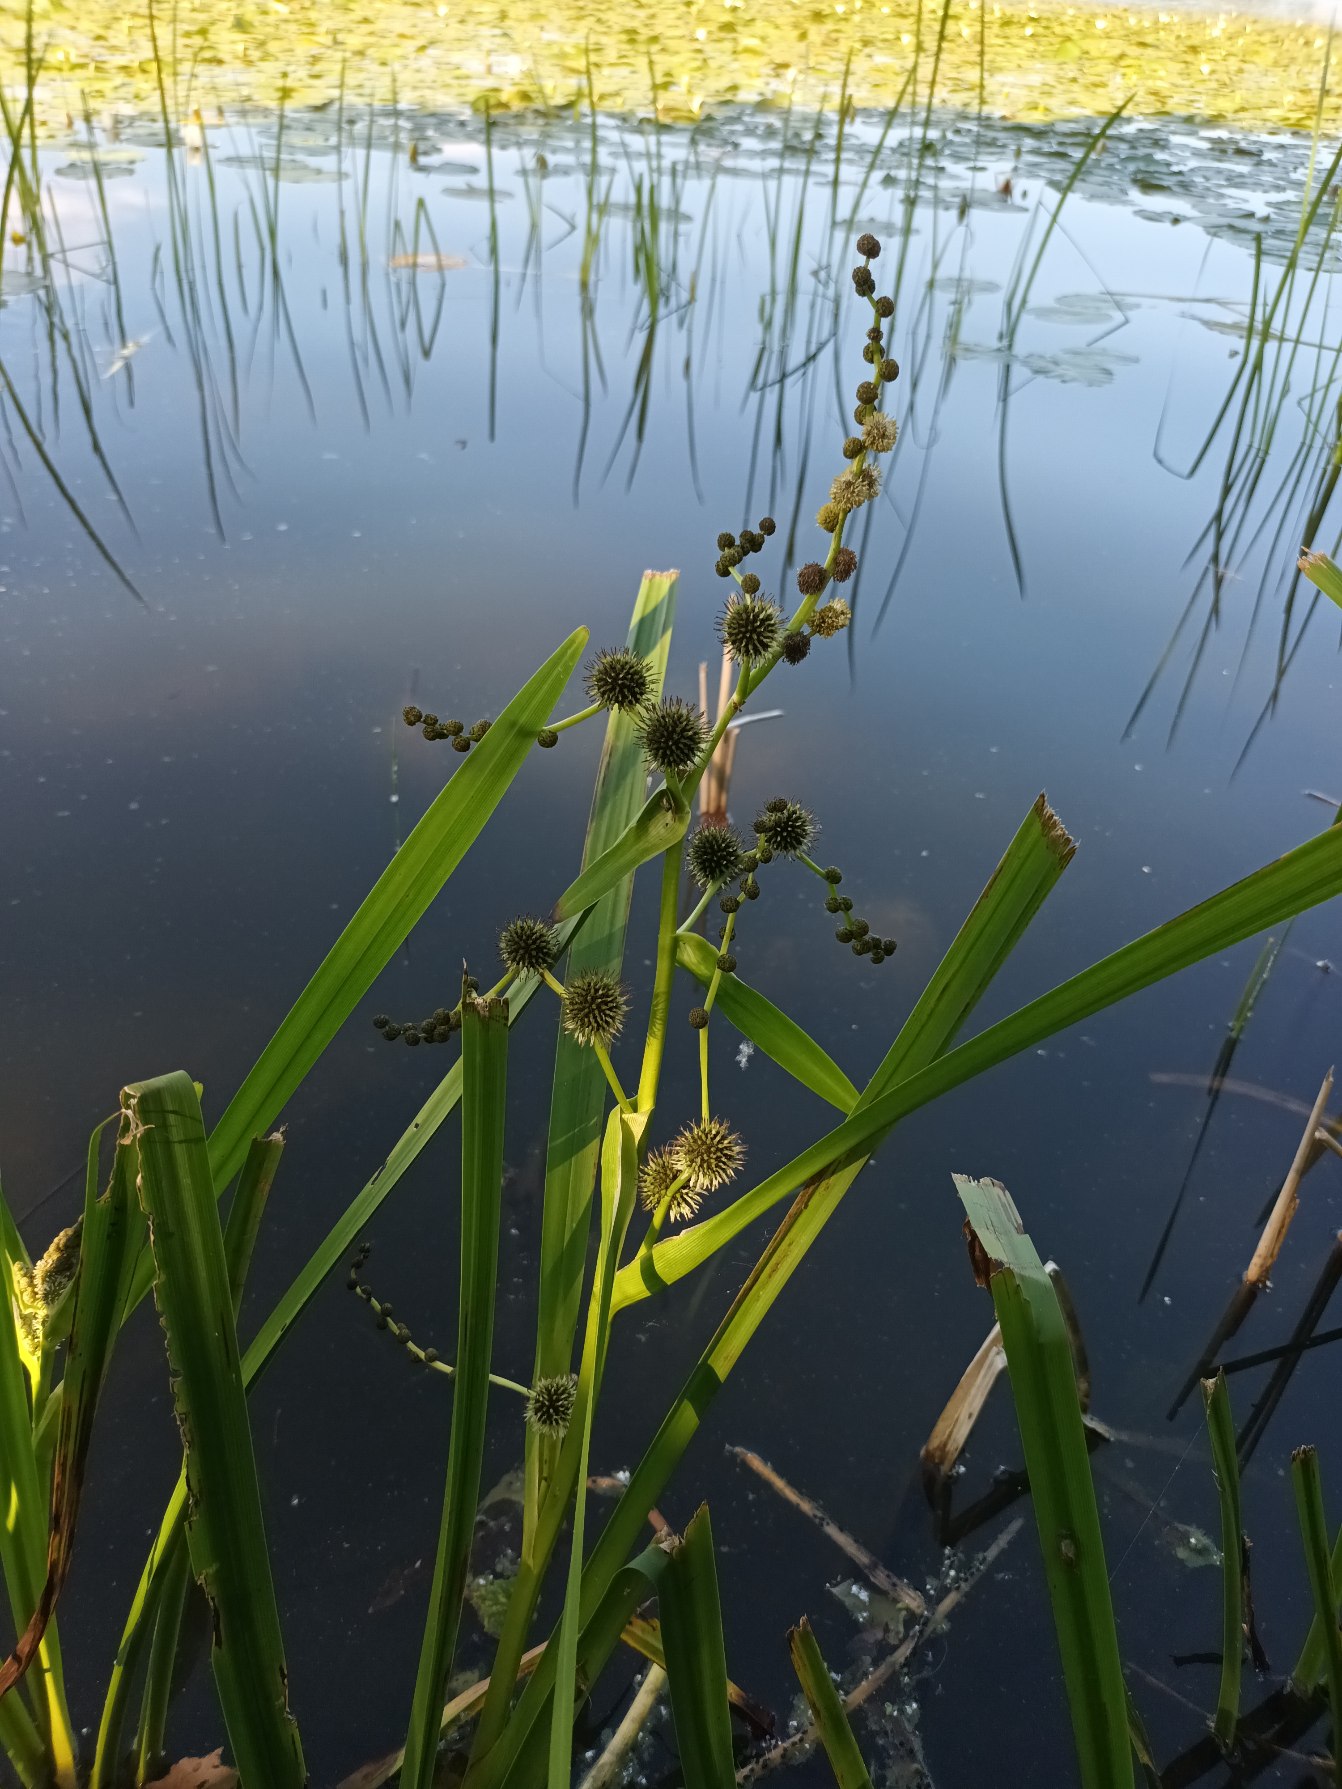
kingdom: Plantae
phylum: Tracheophyta
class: Liliopsida
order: Poales
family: Typhaceae
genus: Sparganium
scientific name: Sparganium erectum
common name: Grenet pindsvineknop
